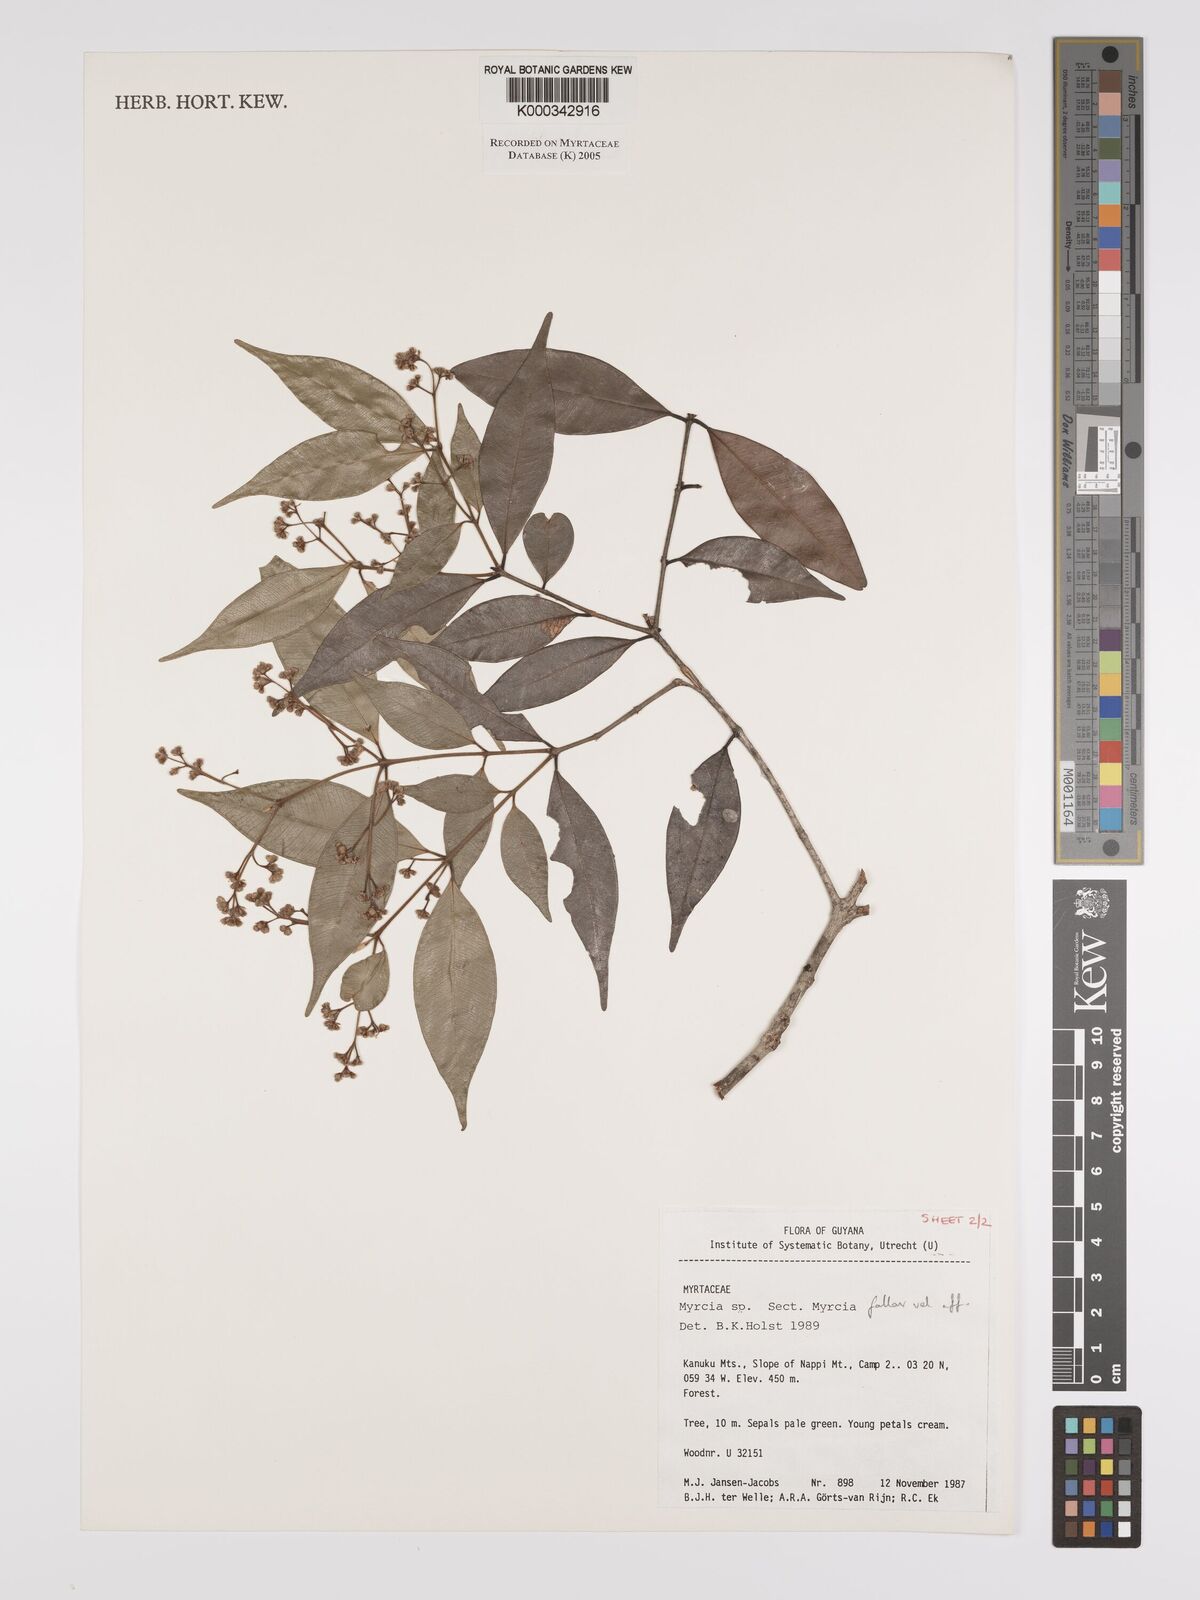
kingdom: Plantae
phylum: Tracheophyta
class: Magnoliopsida
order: Myrtales
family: Myrtaceae
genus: Myrcia
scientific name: Myrcia splendens
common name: Surinam cherry
